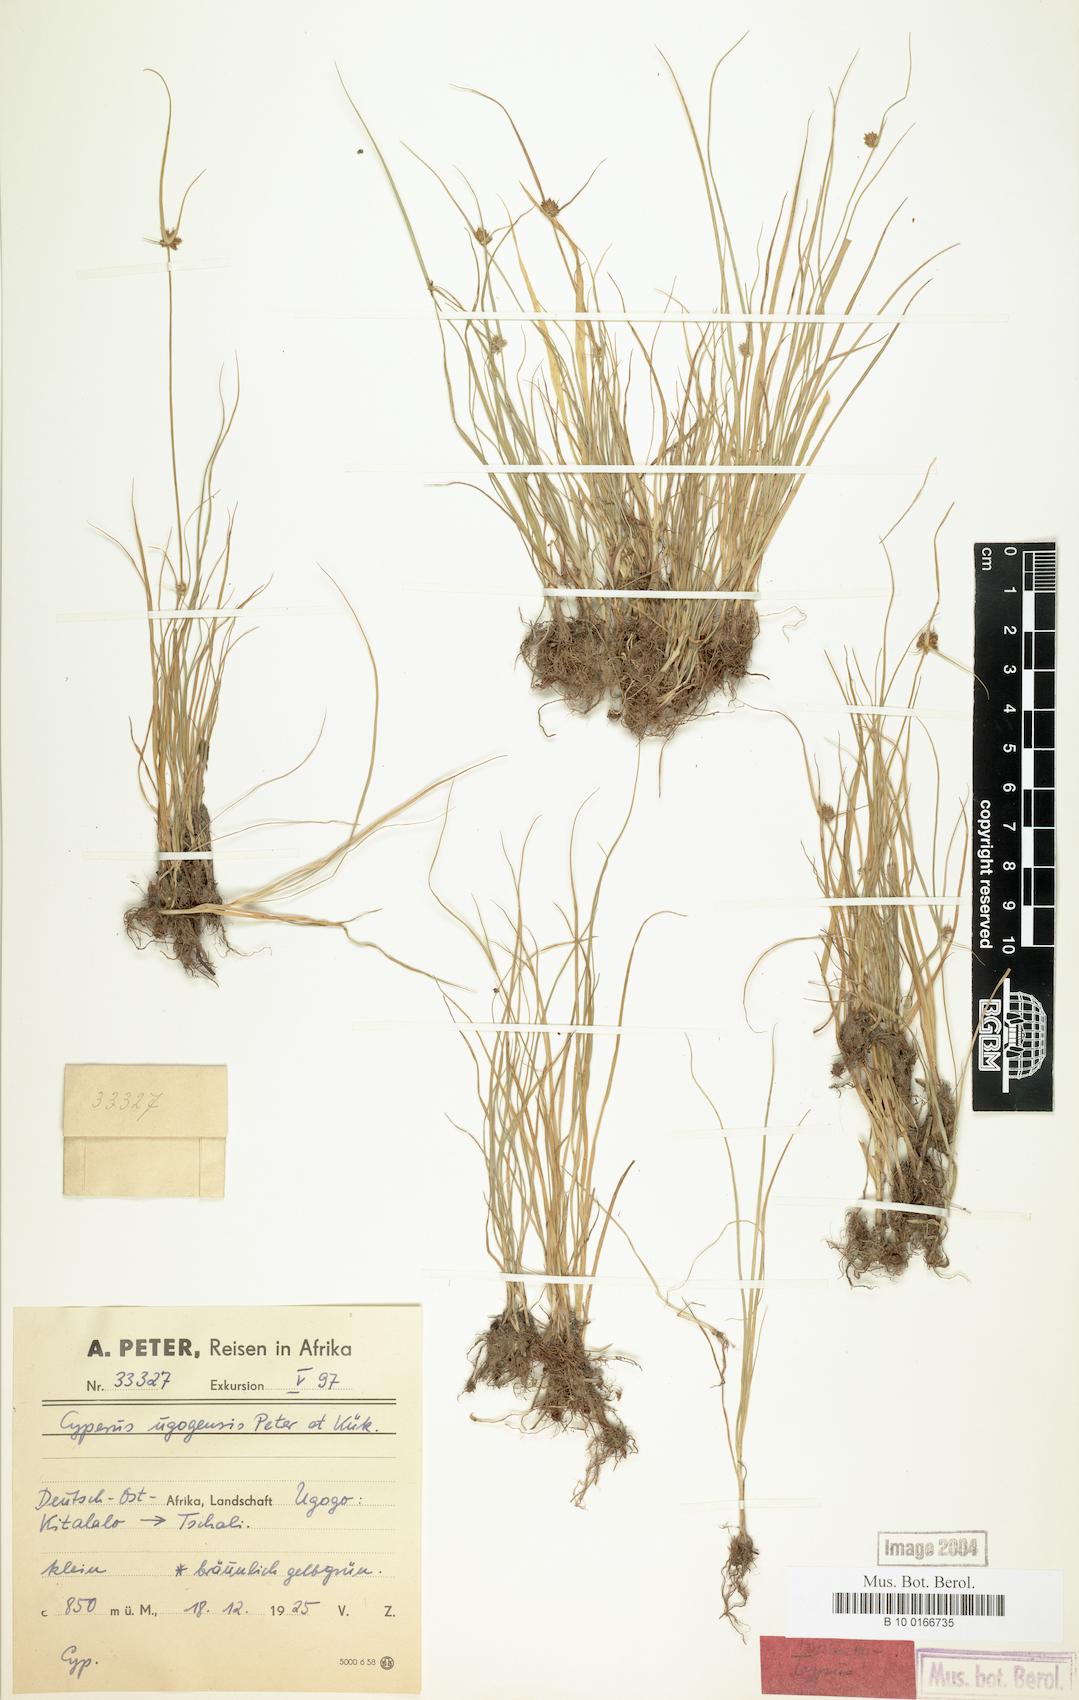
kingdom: Plantae
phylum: Tracheophyta
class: Liliopsida
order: Poales
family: Cyperaceae
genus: Cyperus
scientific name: Cyperus ugogensis
